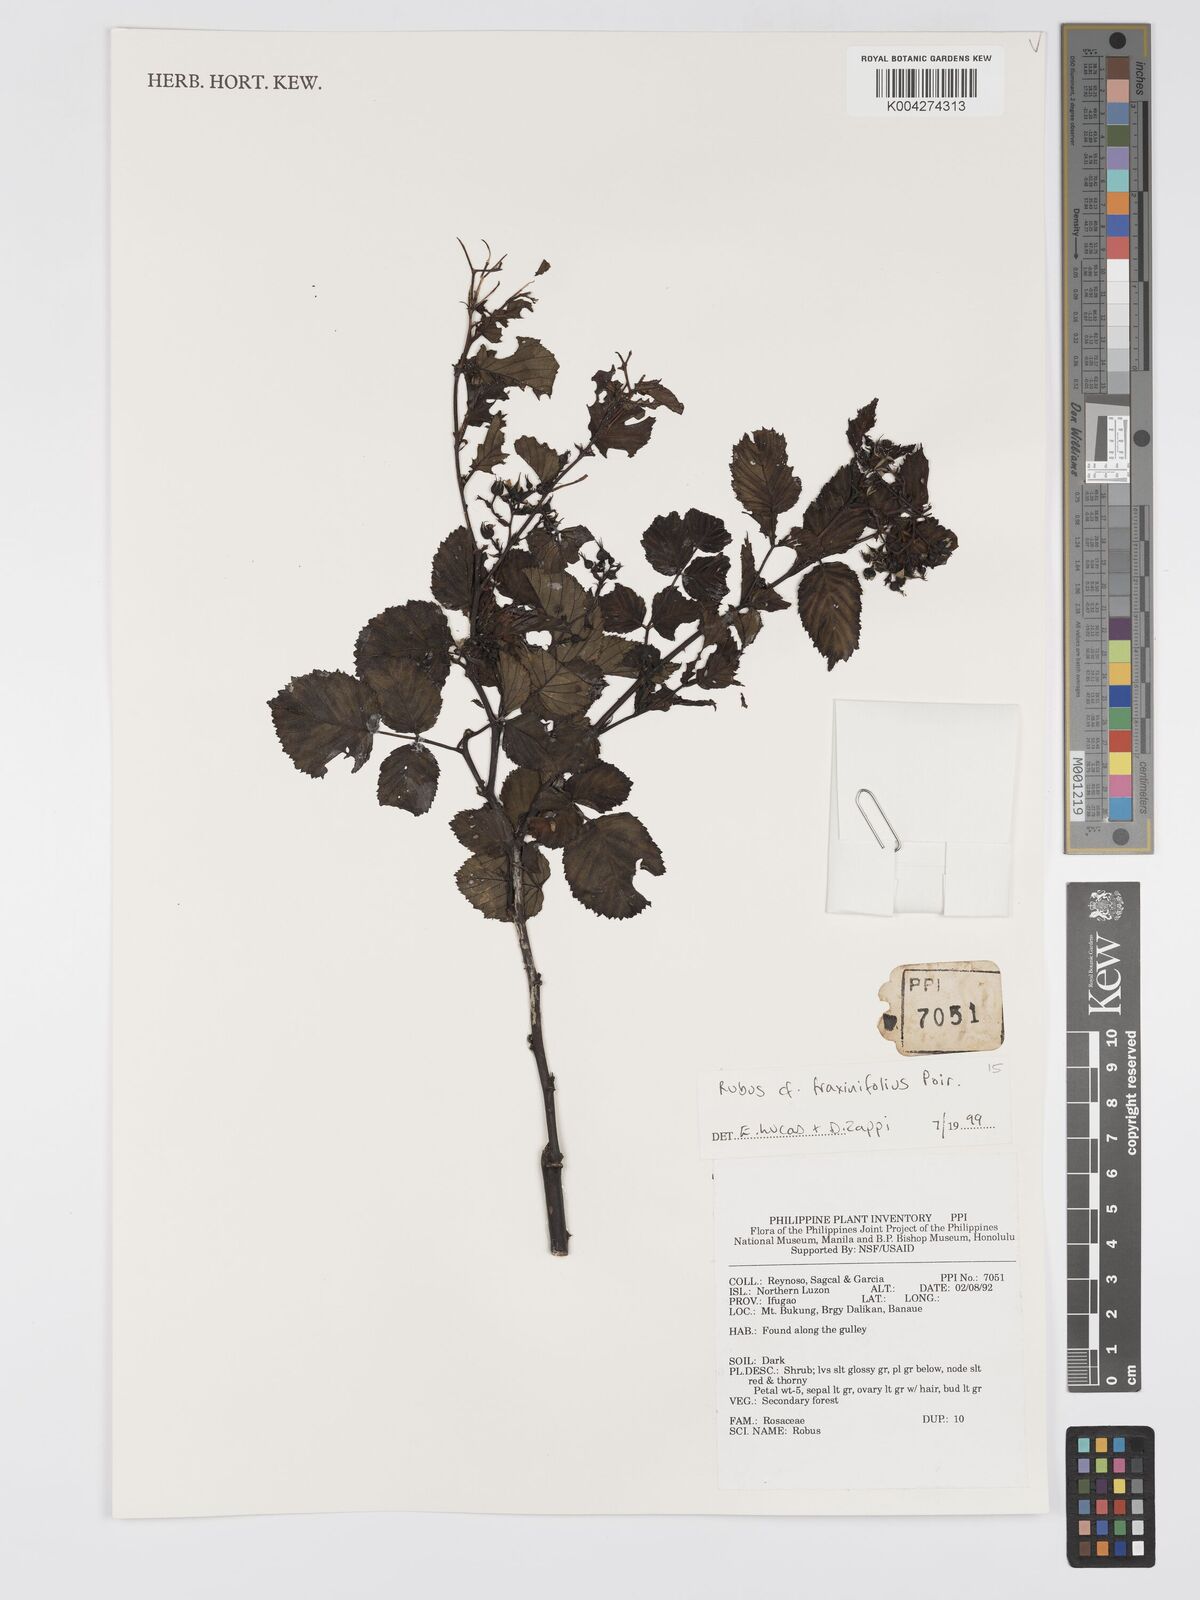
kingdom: Plantae
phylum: Tracheophyta
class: Magnoliopsida
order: Rosales
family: Rosaceae
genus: Rubus
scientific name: Rubus fraxinifolius
